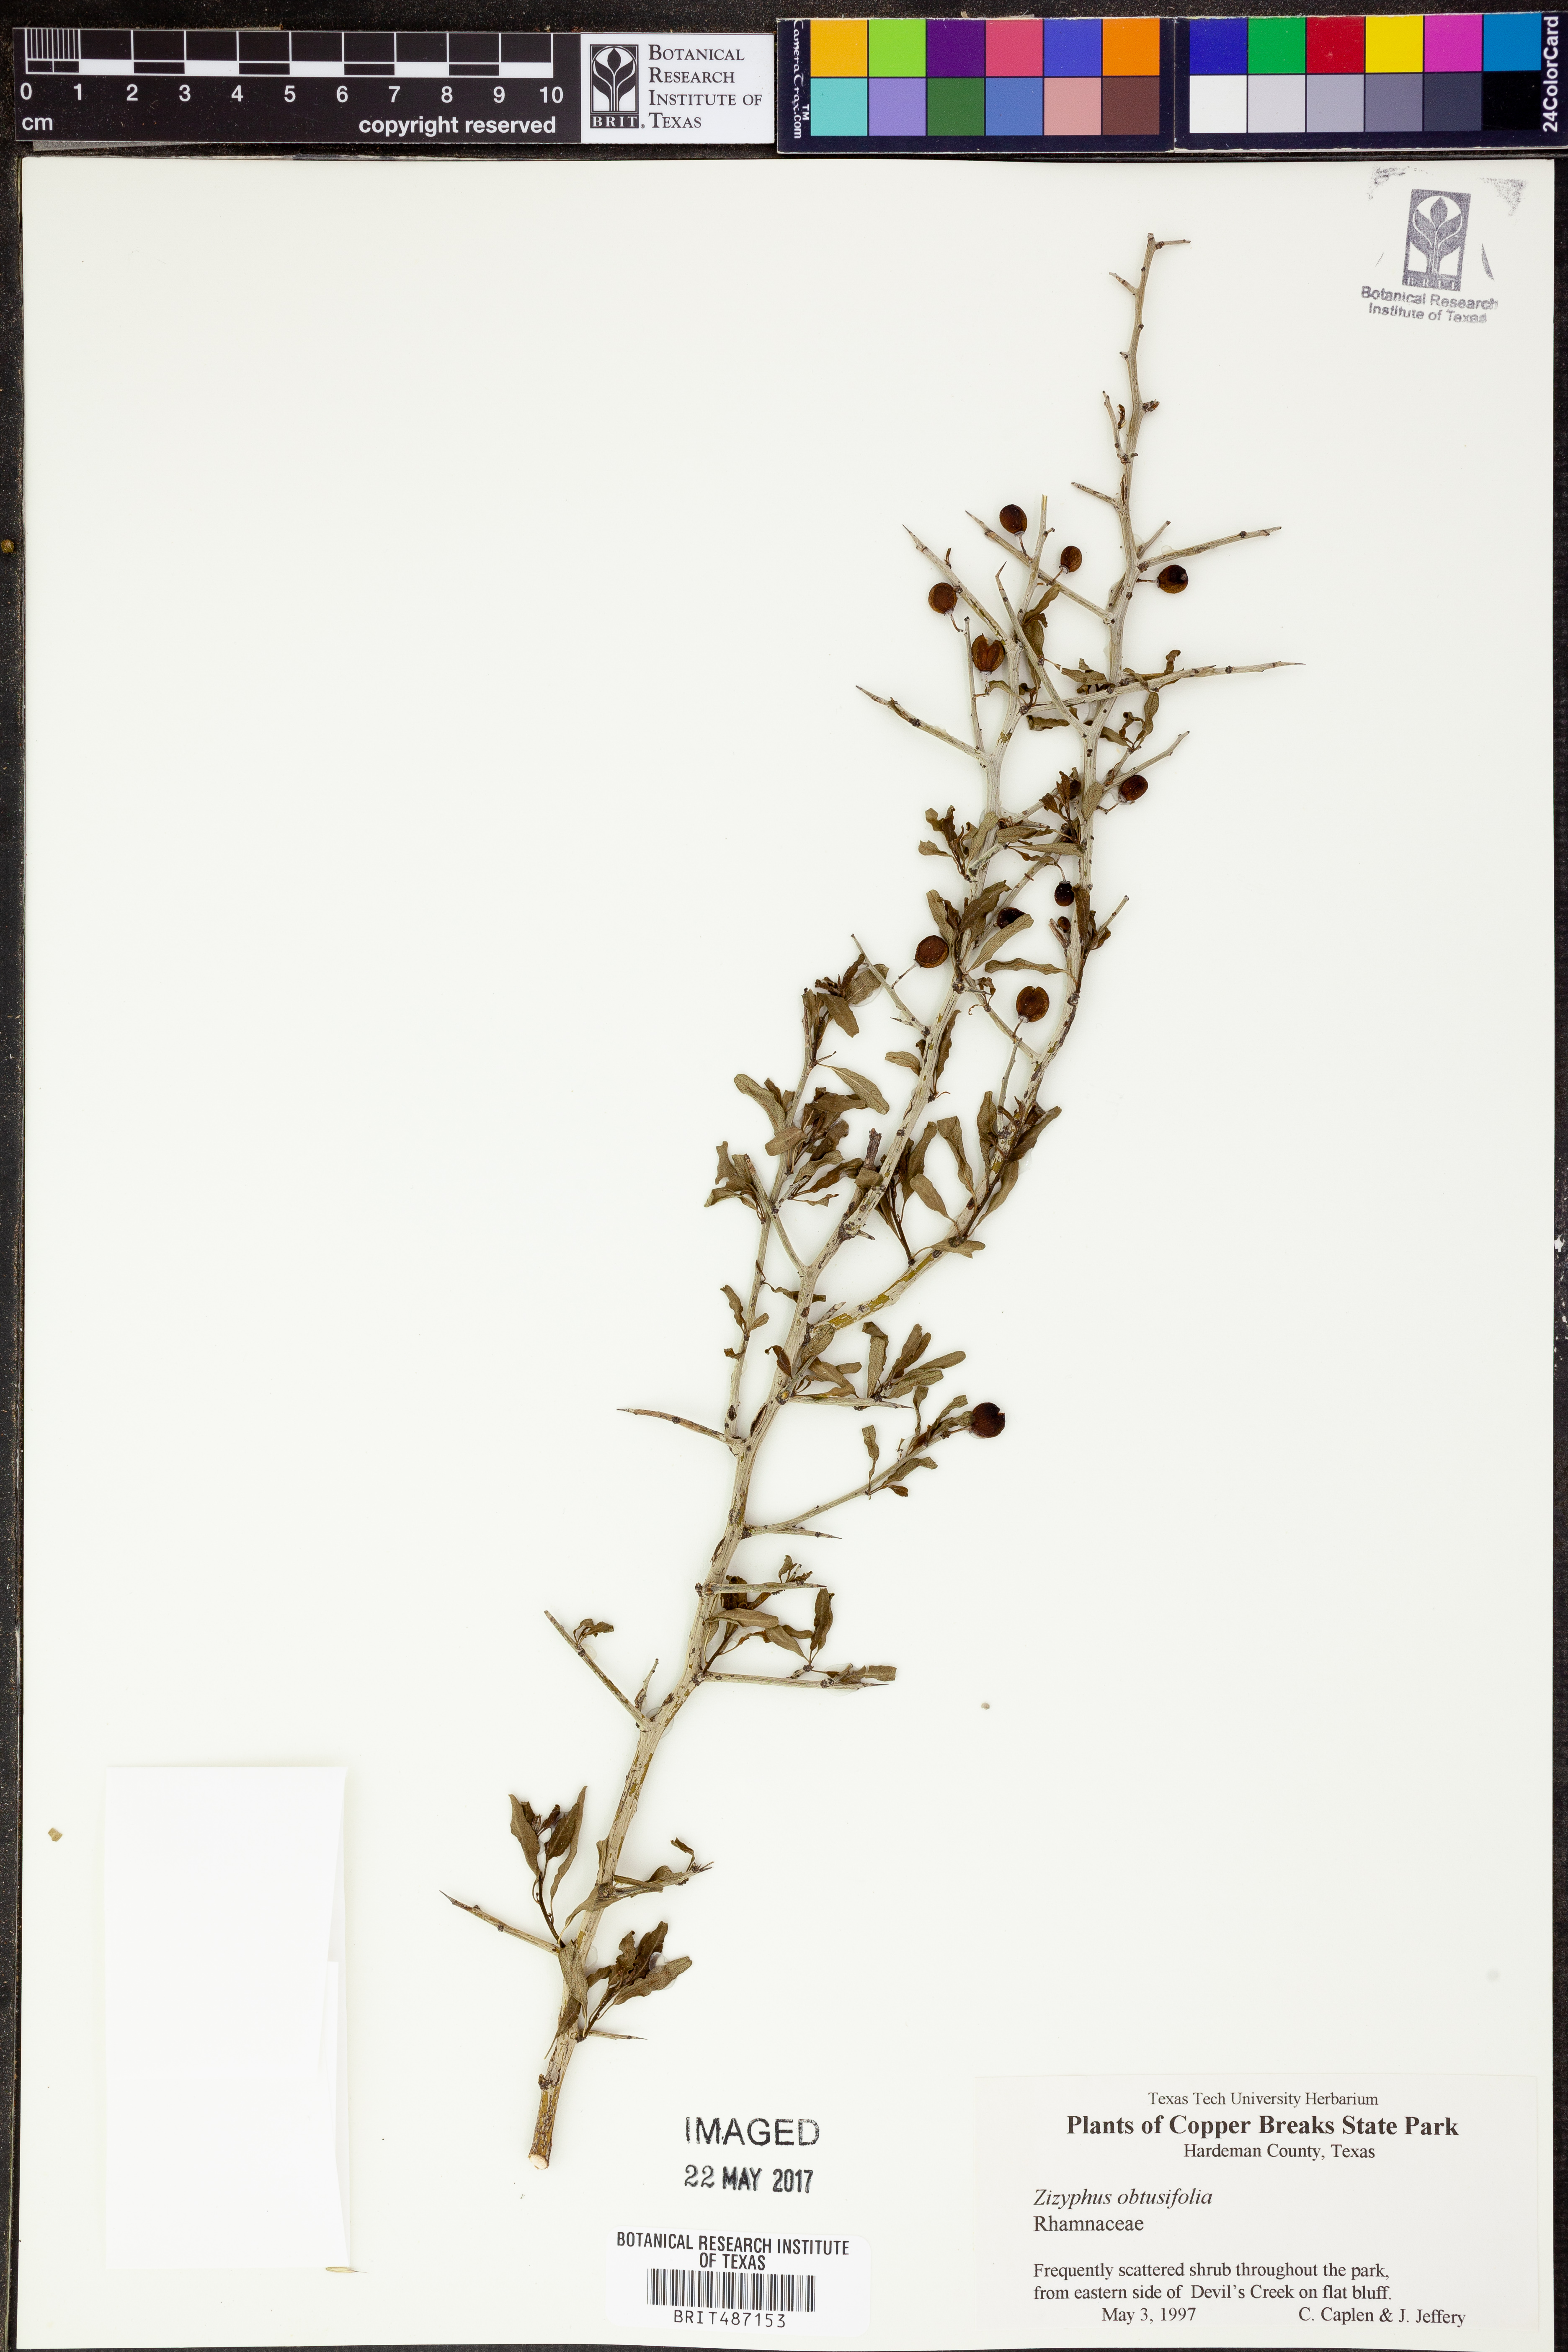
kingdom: Plantae
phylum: Tracheophyta
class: Magnoliopsida
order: Rosales
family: Rhamnaceae
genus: Sarcomphalus
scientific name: Sarcomphalus obtusifolius
